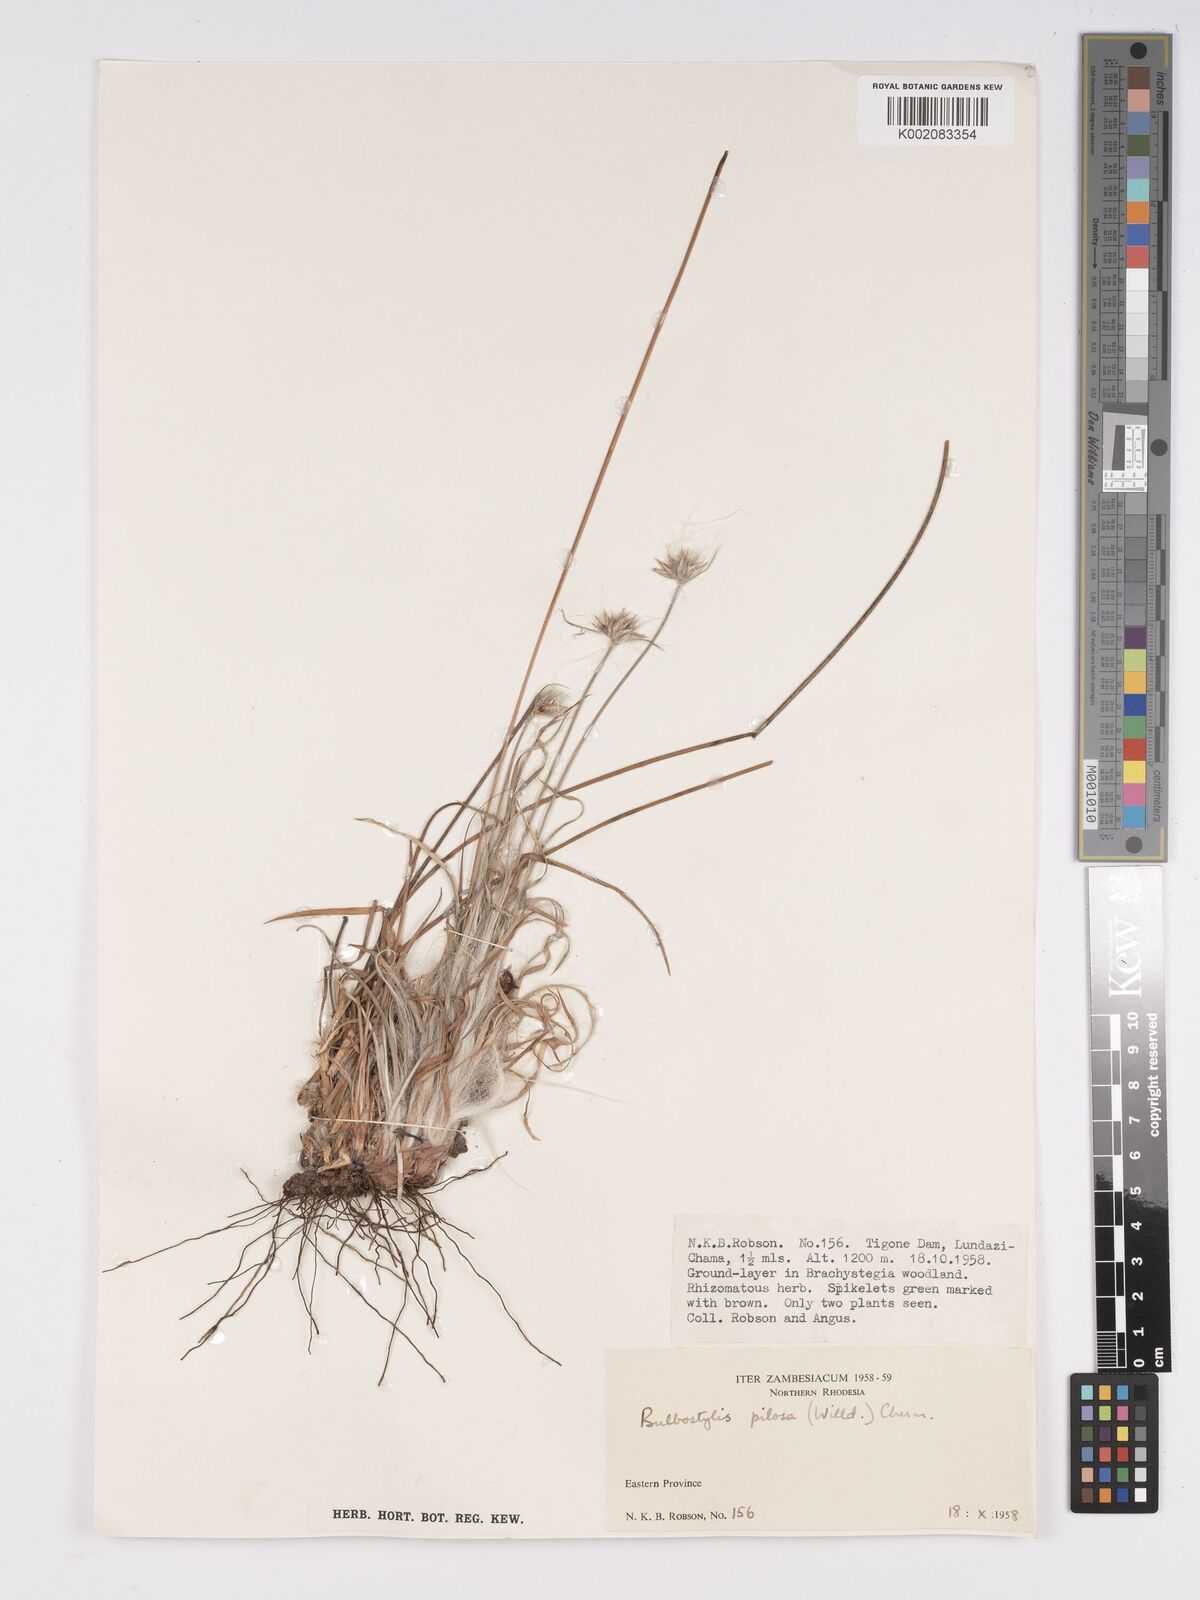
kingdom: Plantae
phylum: Tracheophyta
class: Liliopsida
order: Poales
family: Cyperaceae
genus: Bulbostylis
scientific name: Bulbostylis pilosa
